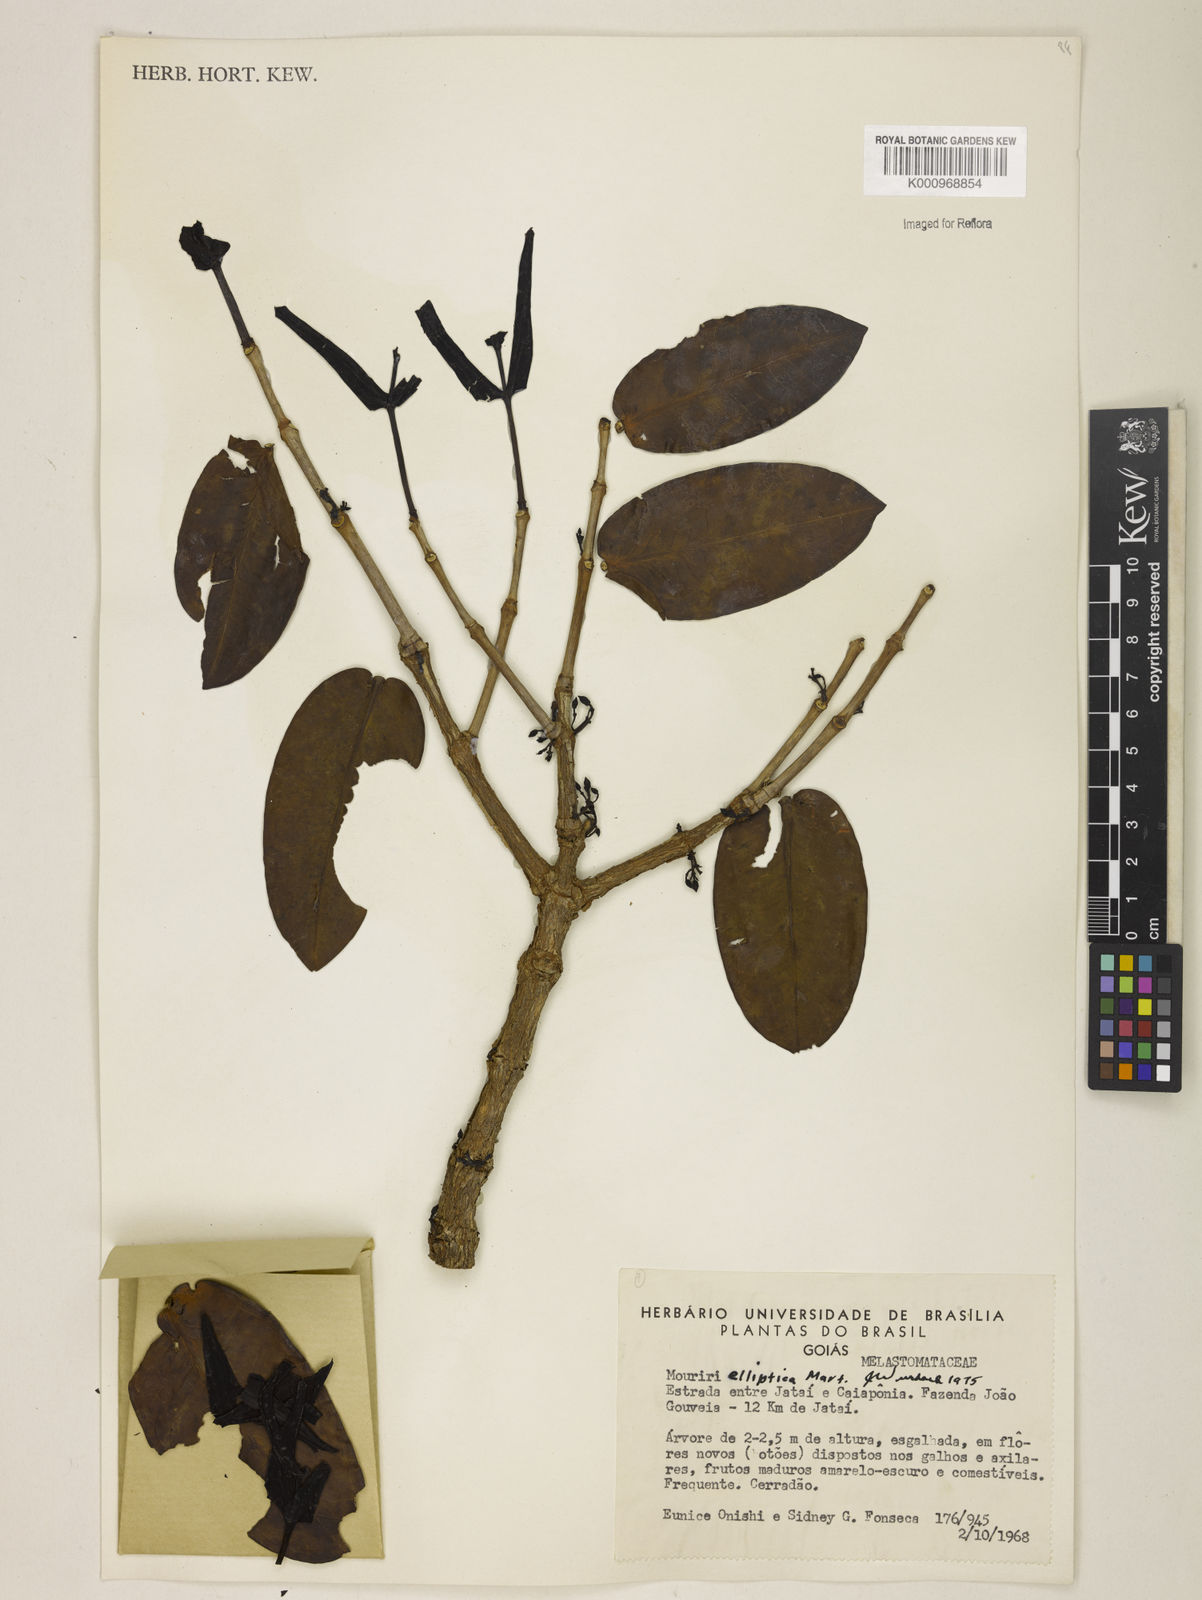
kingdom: Plantae
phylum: Tracheophyta
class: Magnoliopsida
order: Myrtales
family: Melastomataceae
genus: Mouriri
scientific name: Mouriri elliptica
